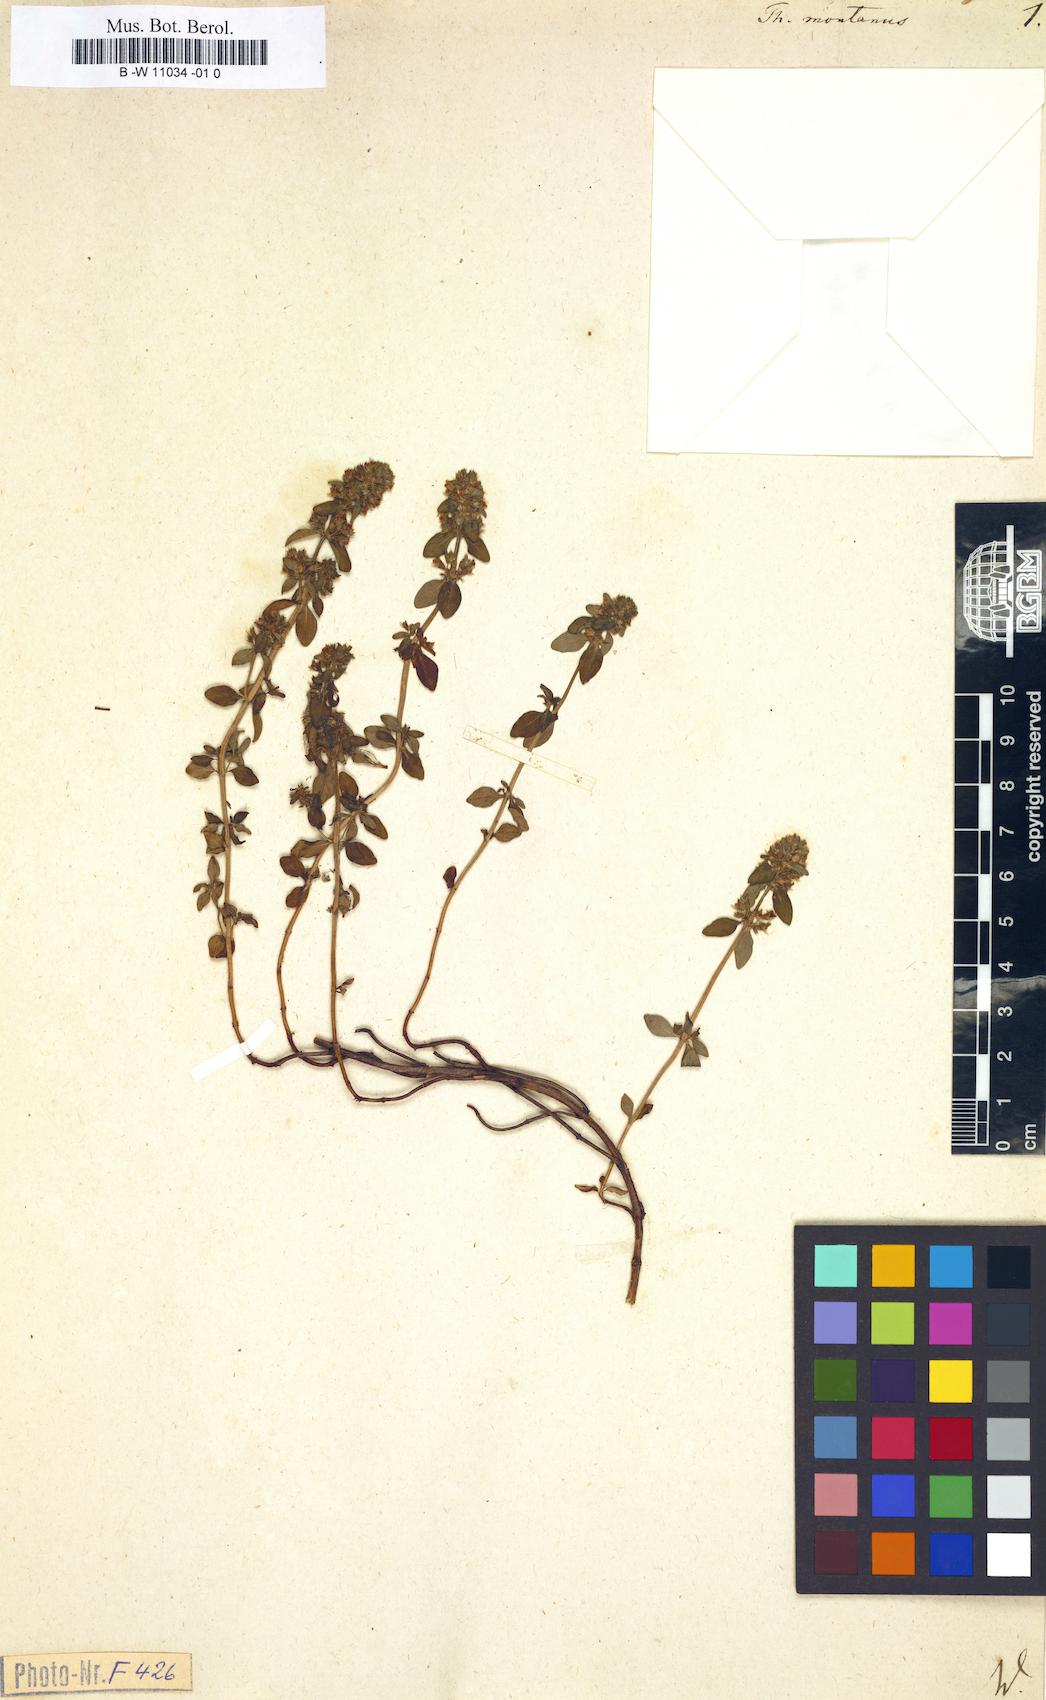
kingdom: Plantae
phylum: Tracheophyta
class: Magnoliopsida
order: Lamiales
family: Lamiaceae
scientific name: Lamiaceae
